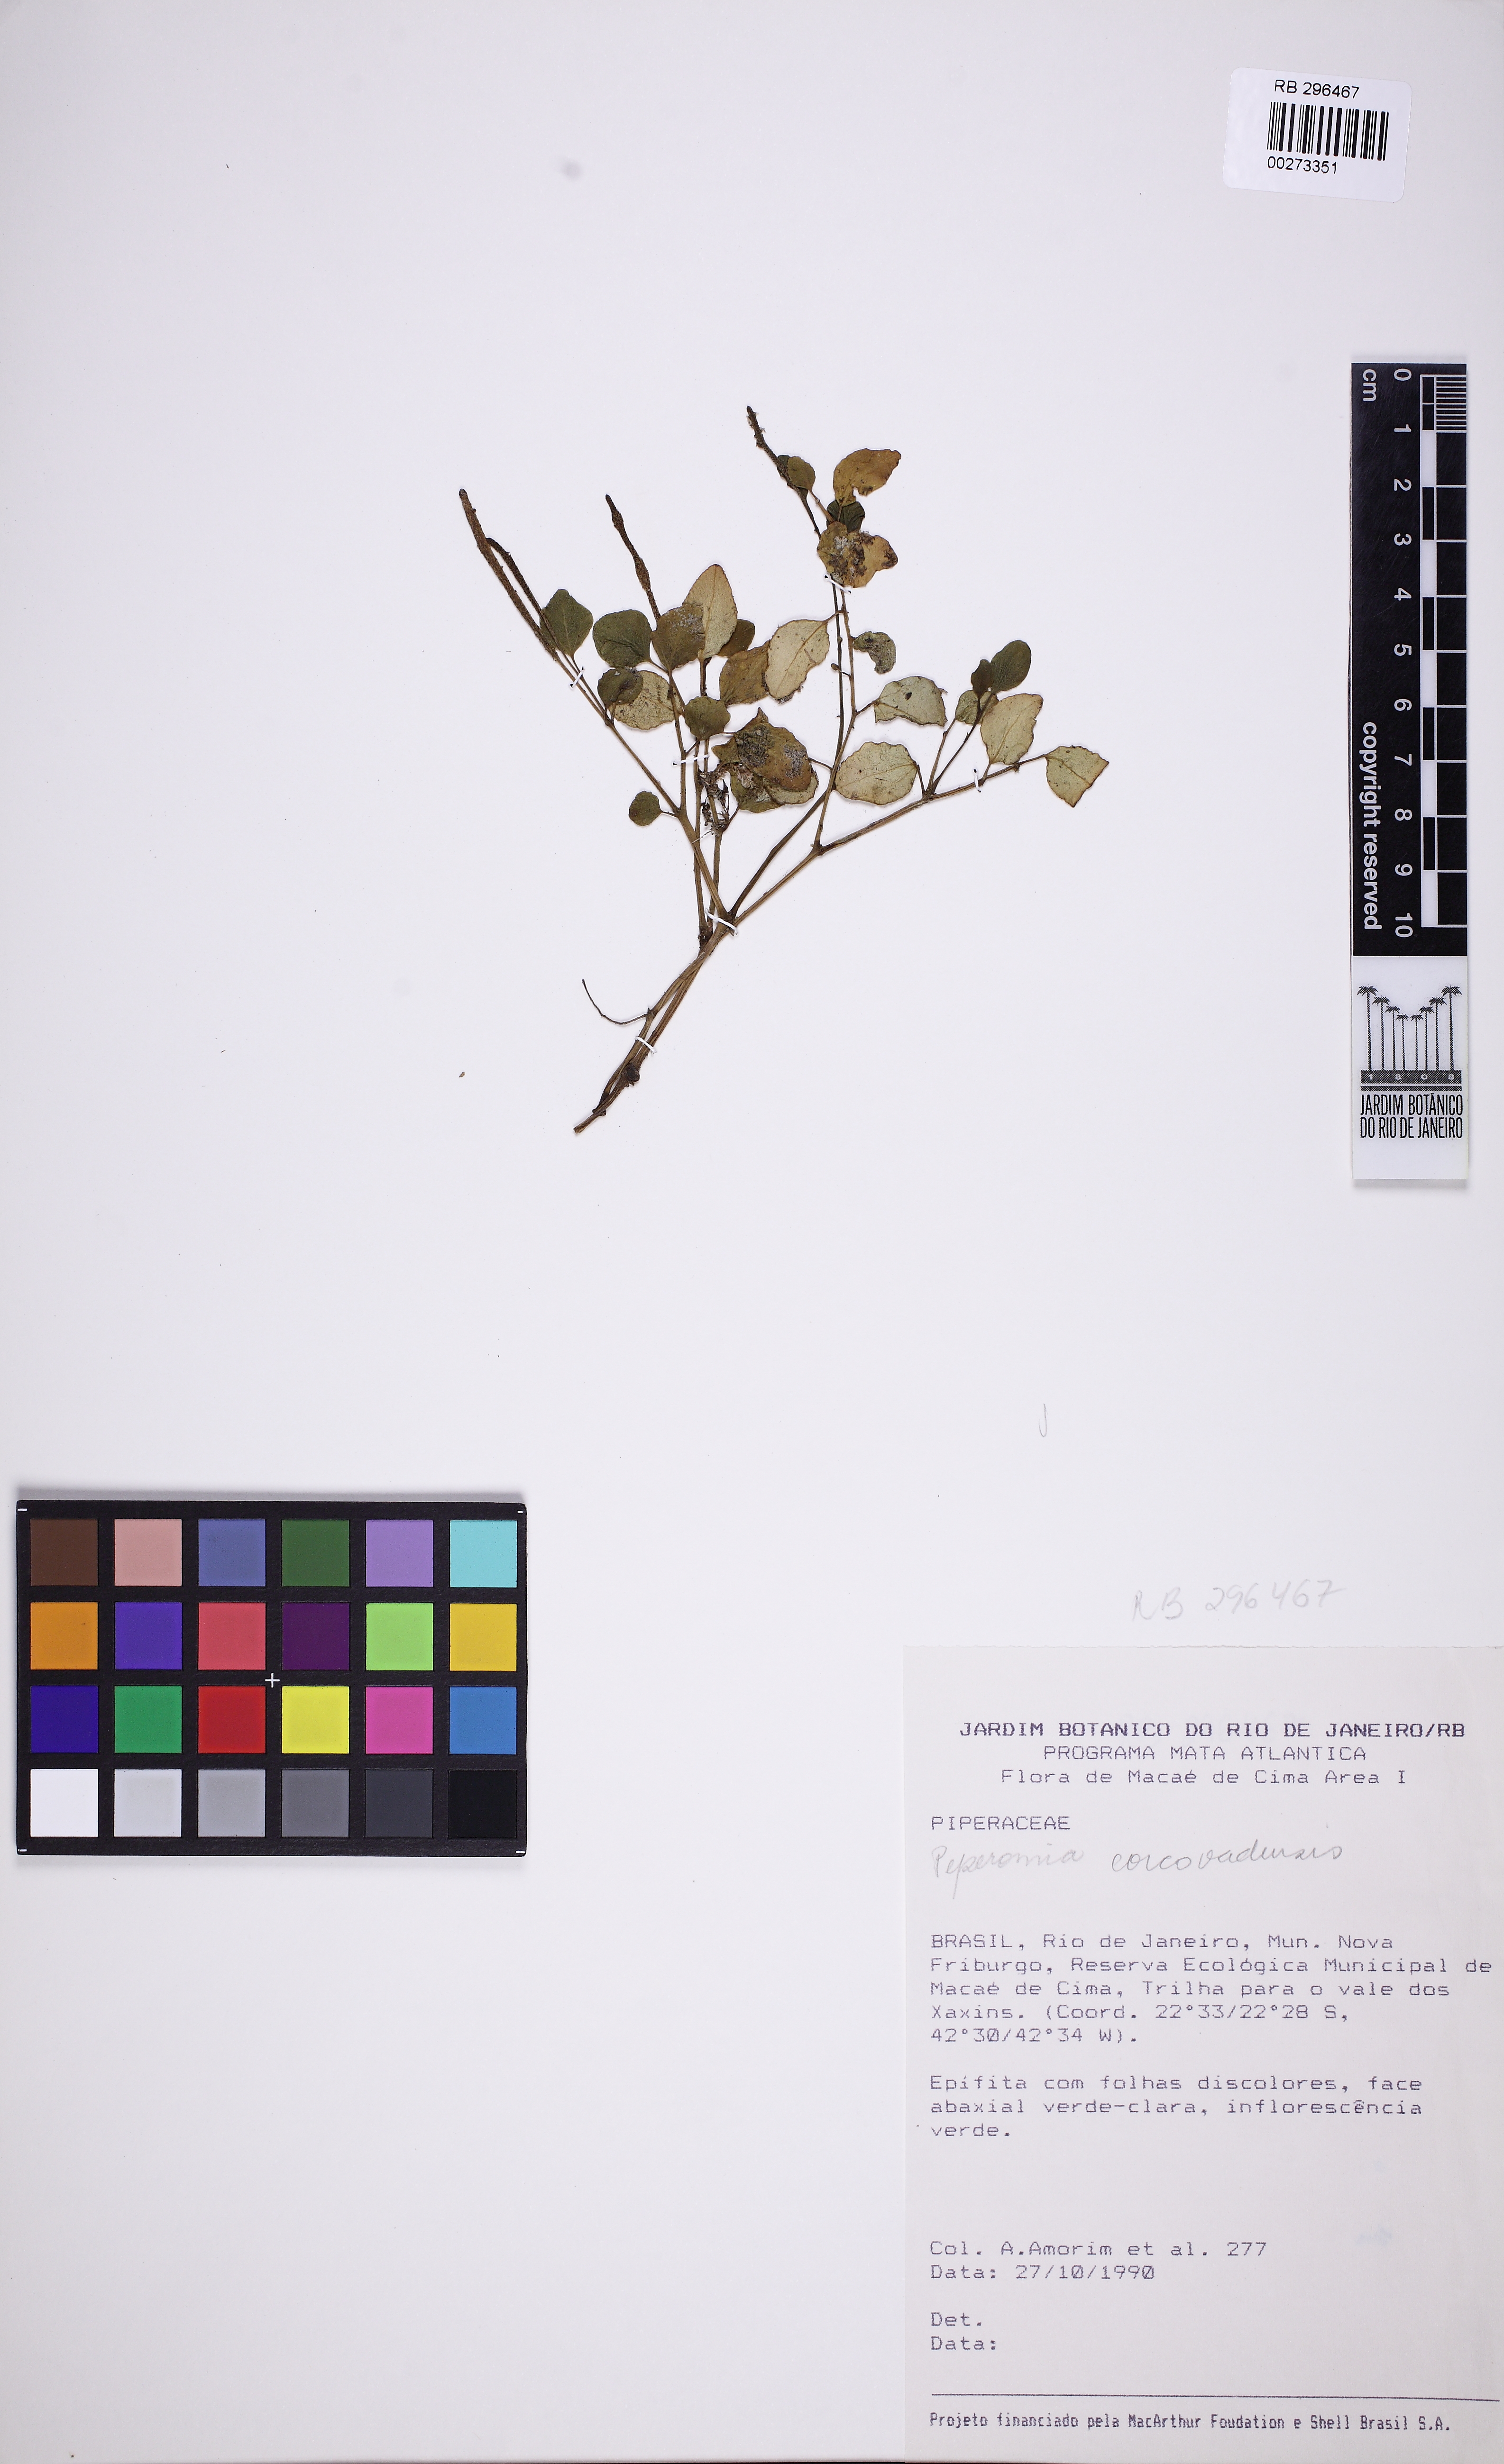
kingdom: Plantae
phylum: Tracheophyta
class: Magnoliopsida
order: Piperales
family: Piperaceae
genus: Peperomia
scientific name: Peperomia corcovadensis
